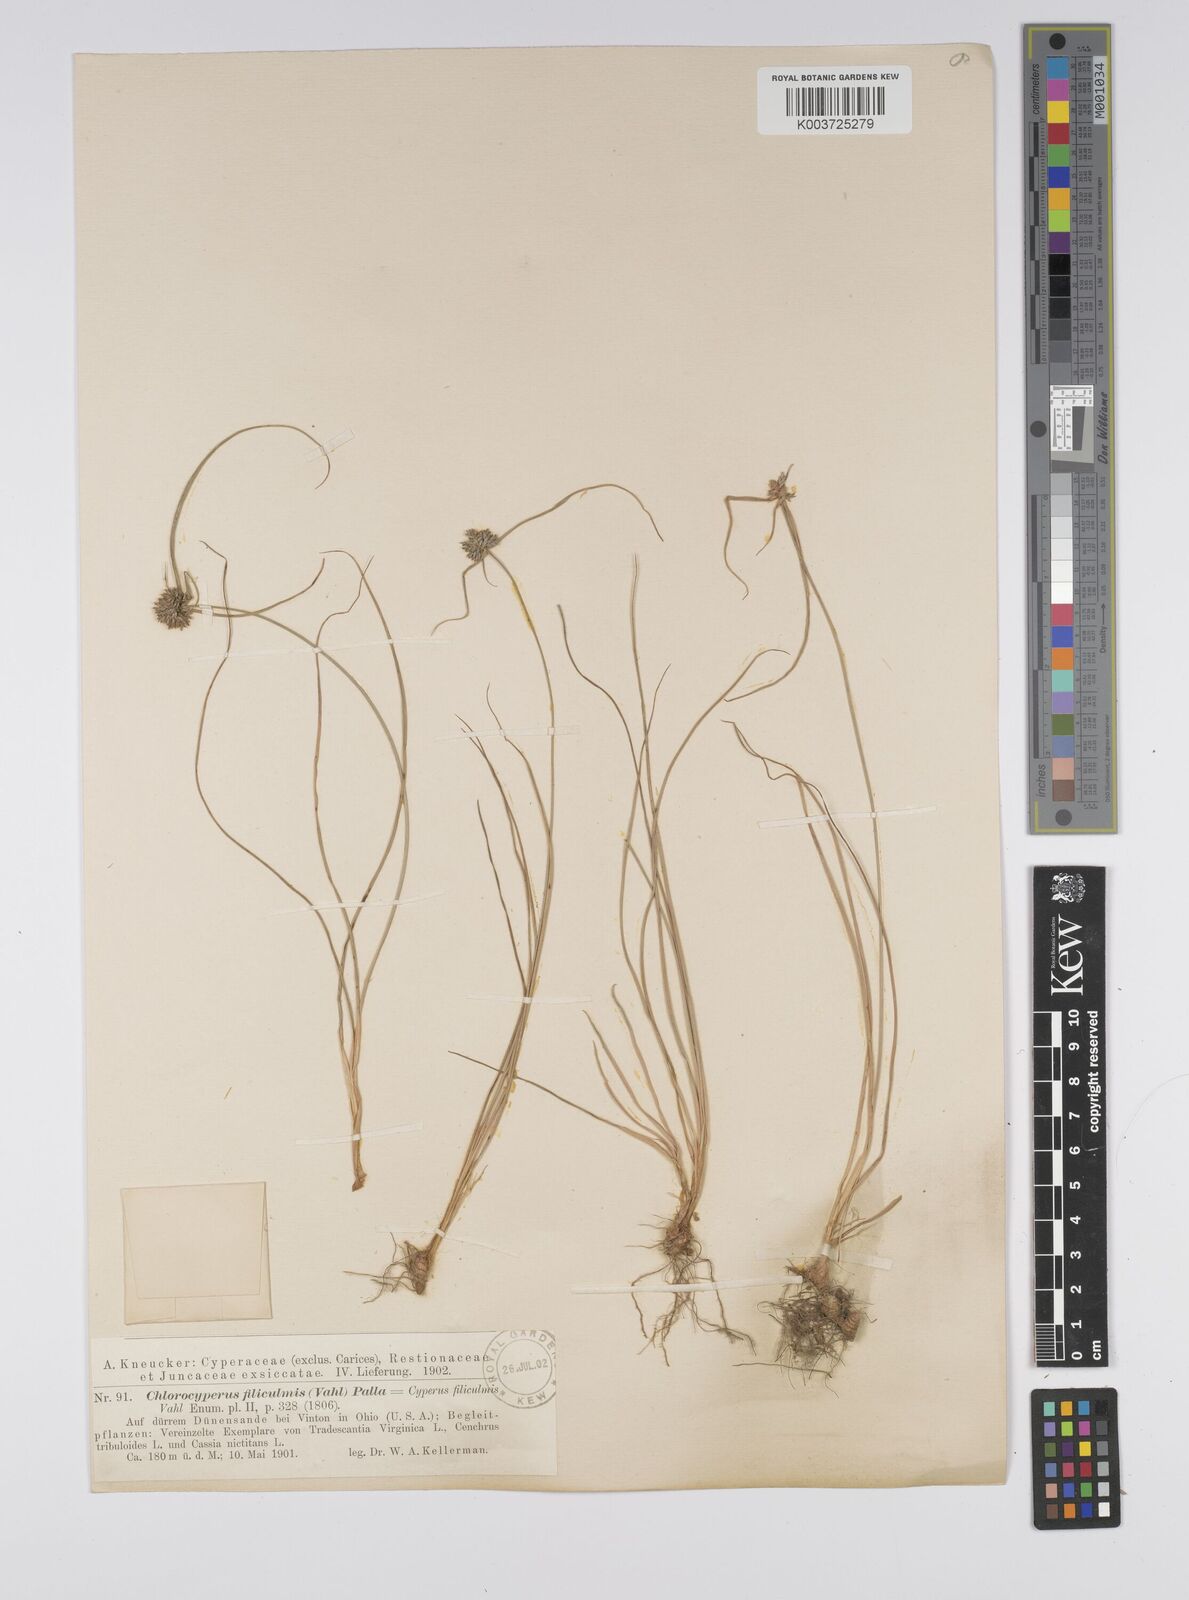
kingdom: Plantae
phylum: Tracheophyta
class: Liliopsida
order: Poales
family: Cyperaceae
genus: Cyperus
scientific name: Cyperus lupulinus
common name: Great plains flatsedge
